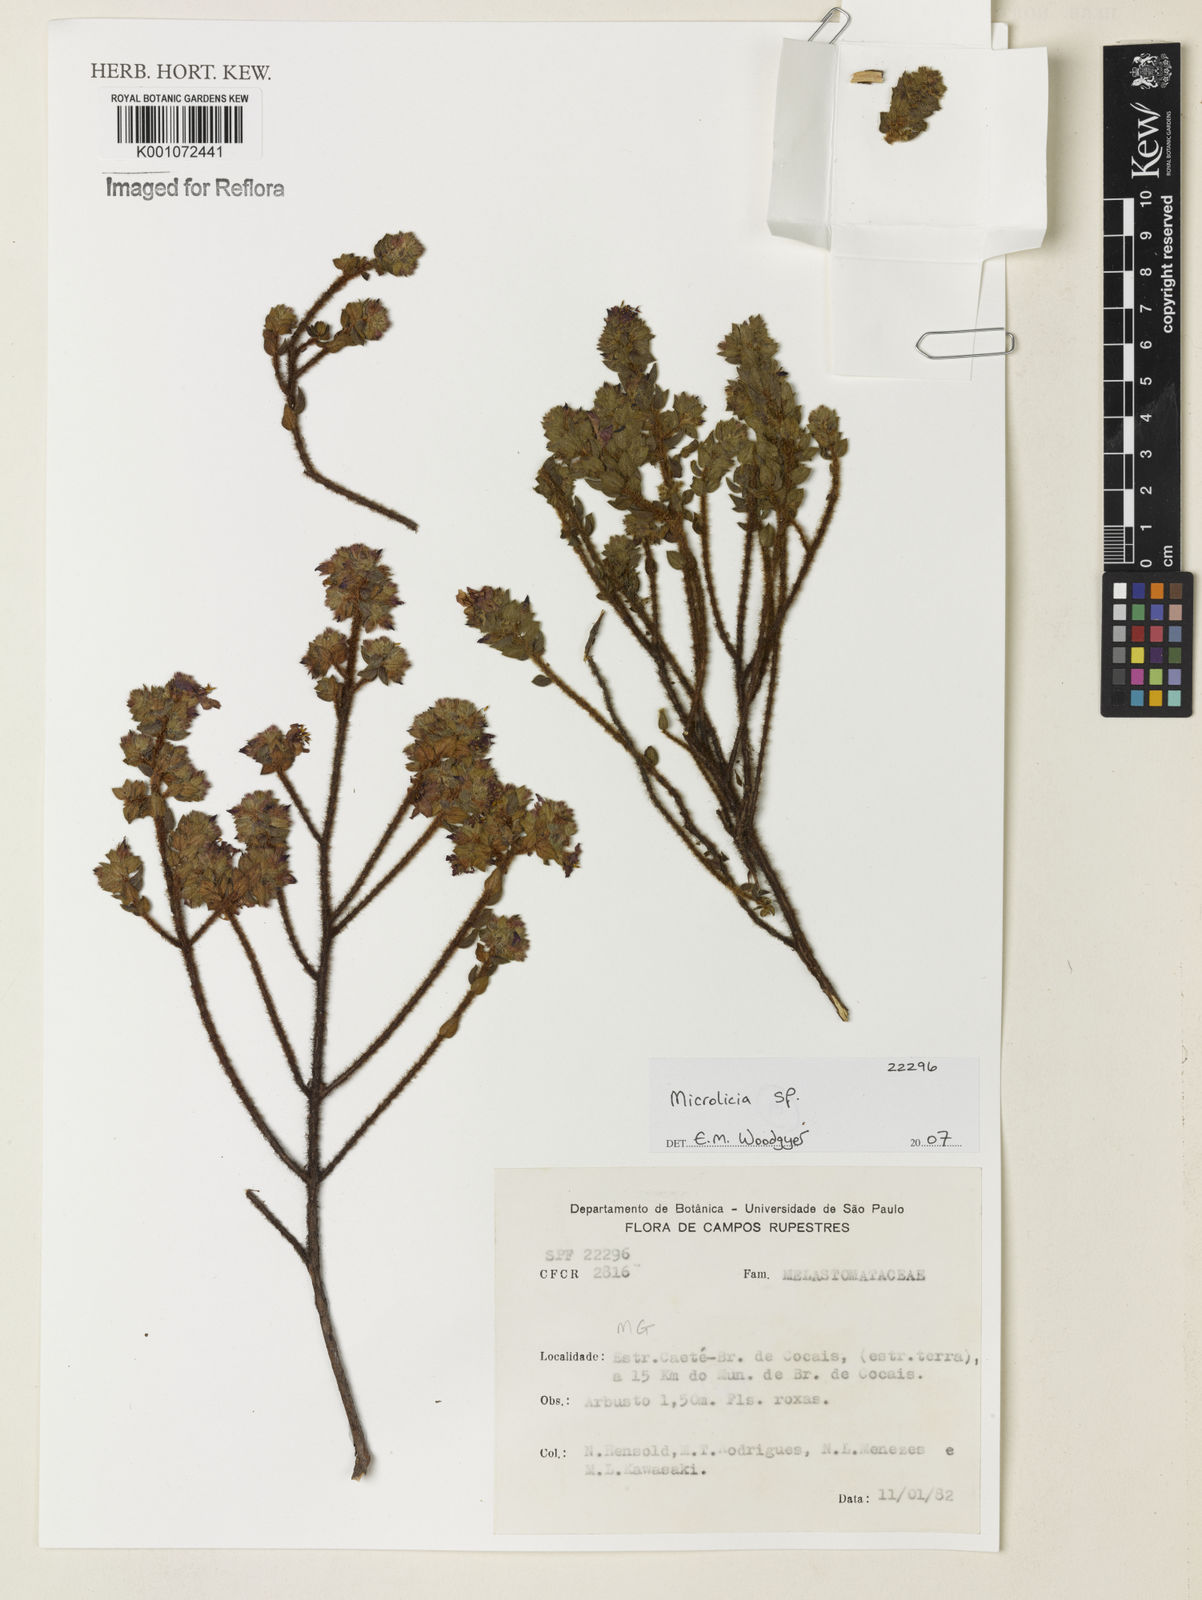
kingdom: Plantae
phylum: Tracheophyta
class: Magnoliopsida
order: Myrtales
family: Melastomataceae
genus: Microlicia
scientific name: Microlicia
